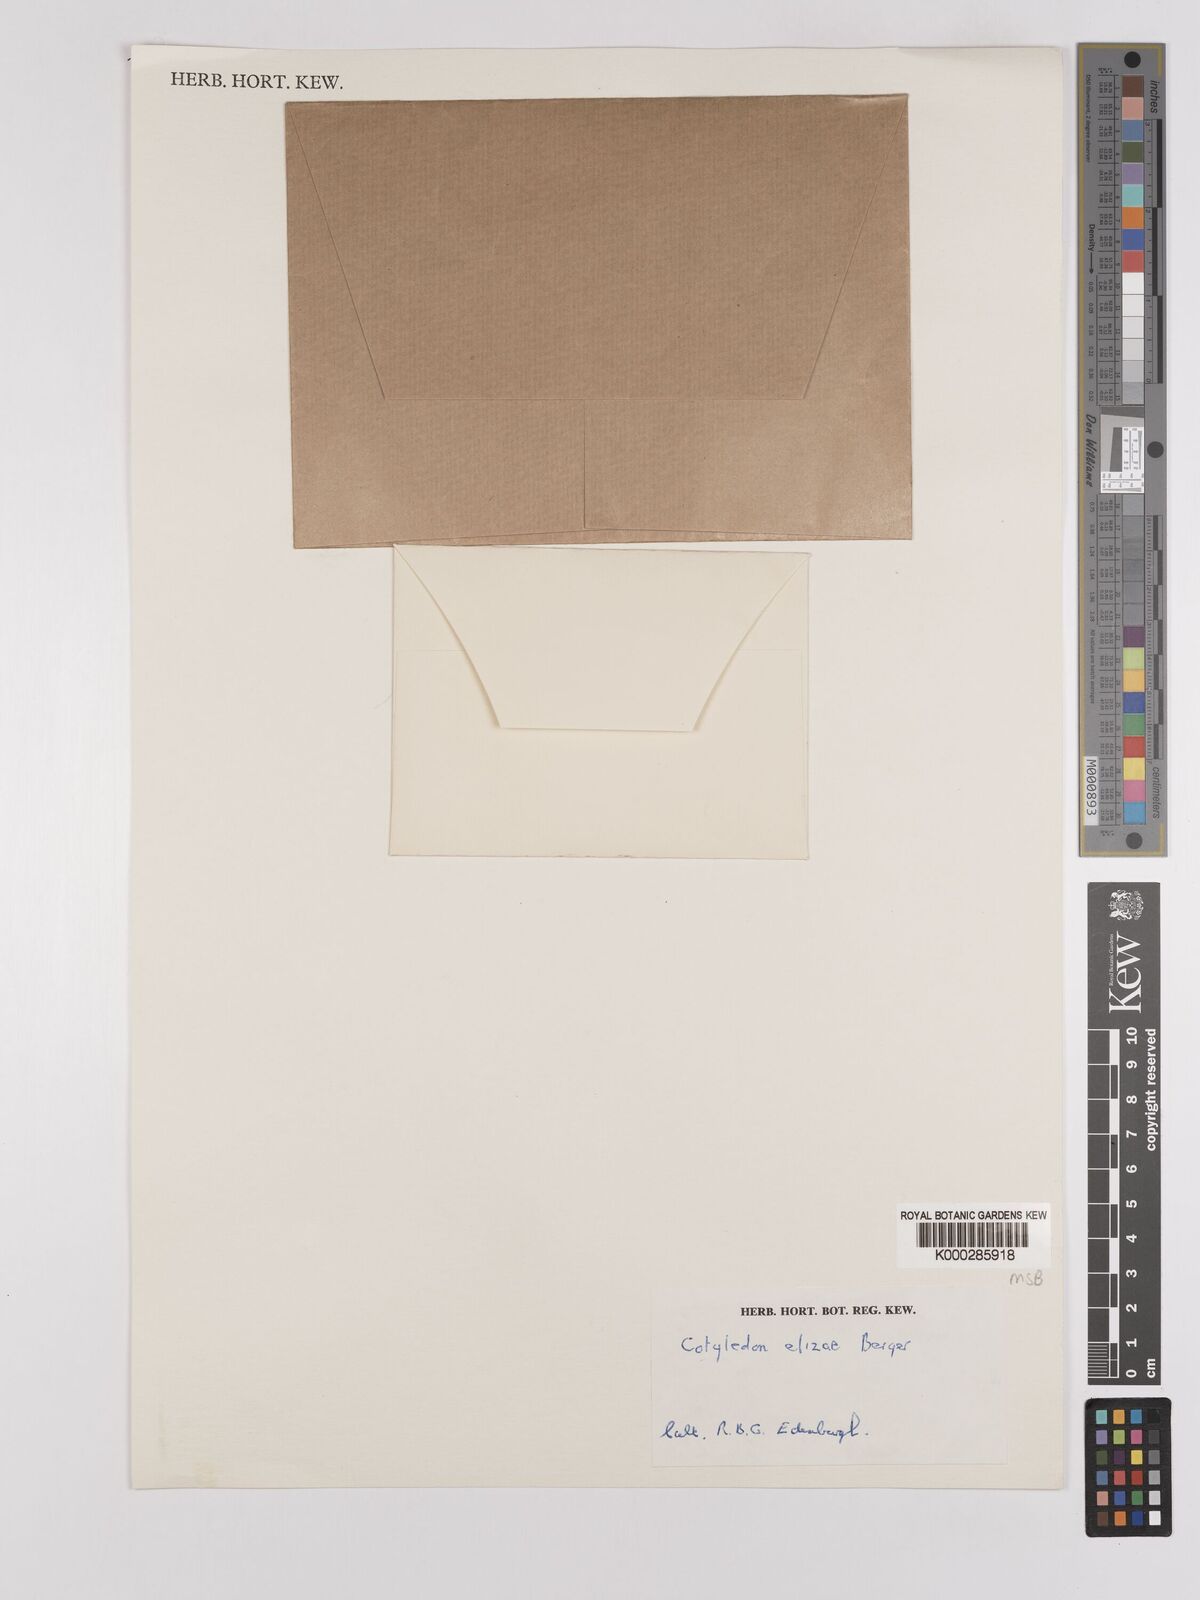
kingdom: Plantae
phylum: Tracheophyta
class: Magnoliopsida
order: Saxifragales
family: Crassulaceae
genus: Kalanchoe
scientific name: Kalanchoe elizae
